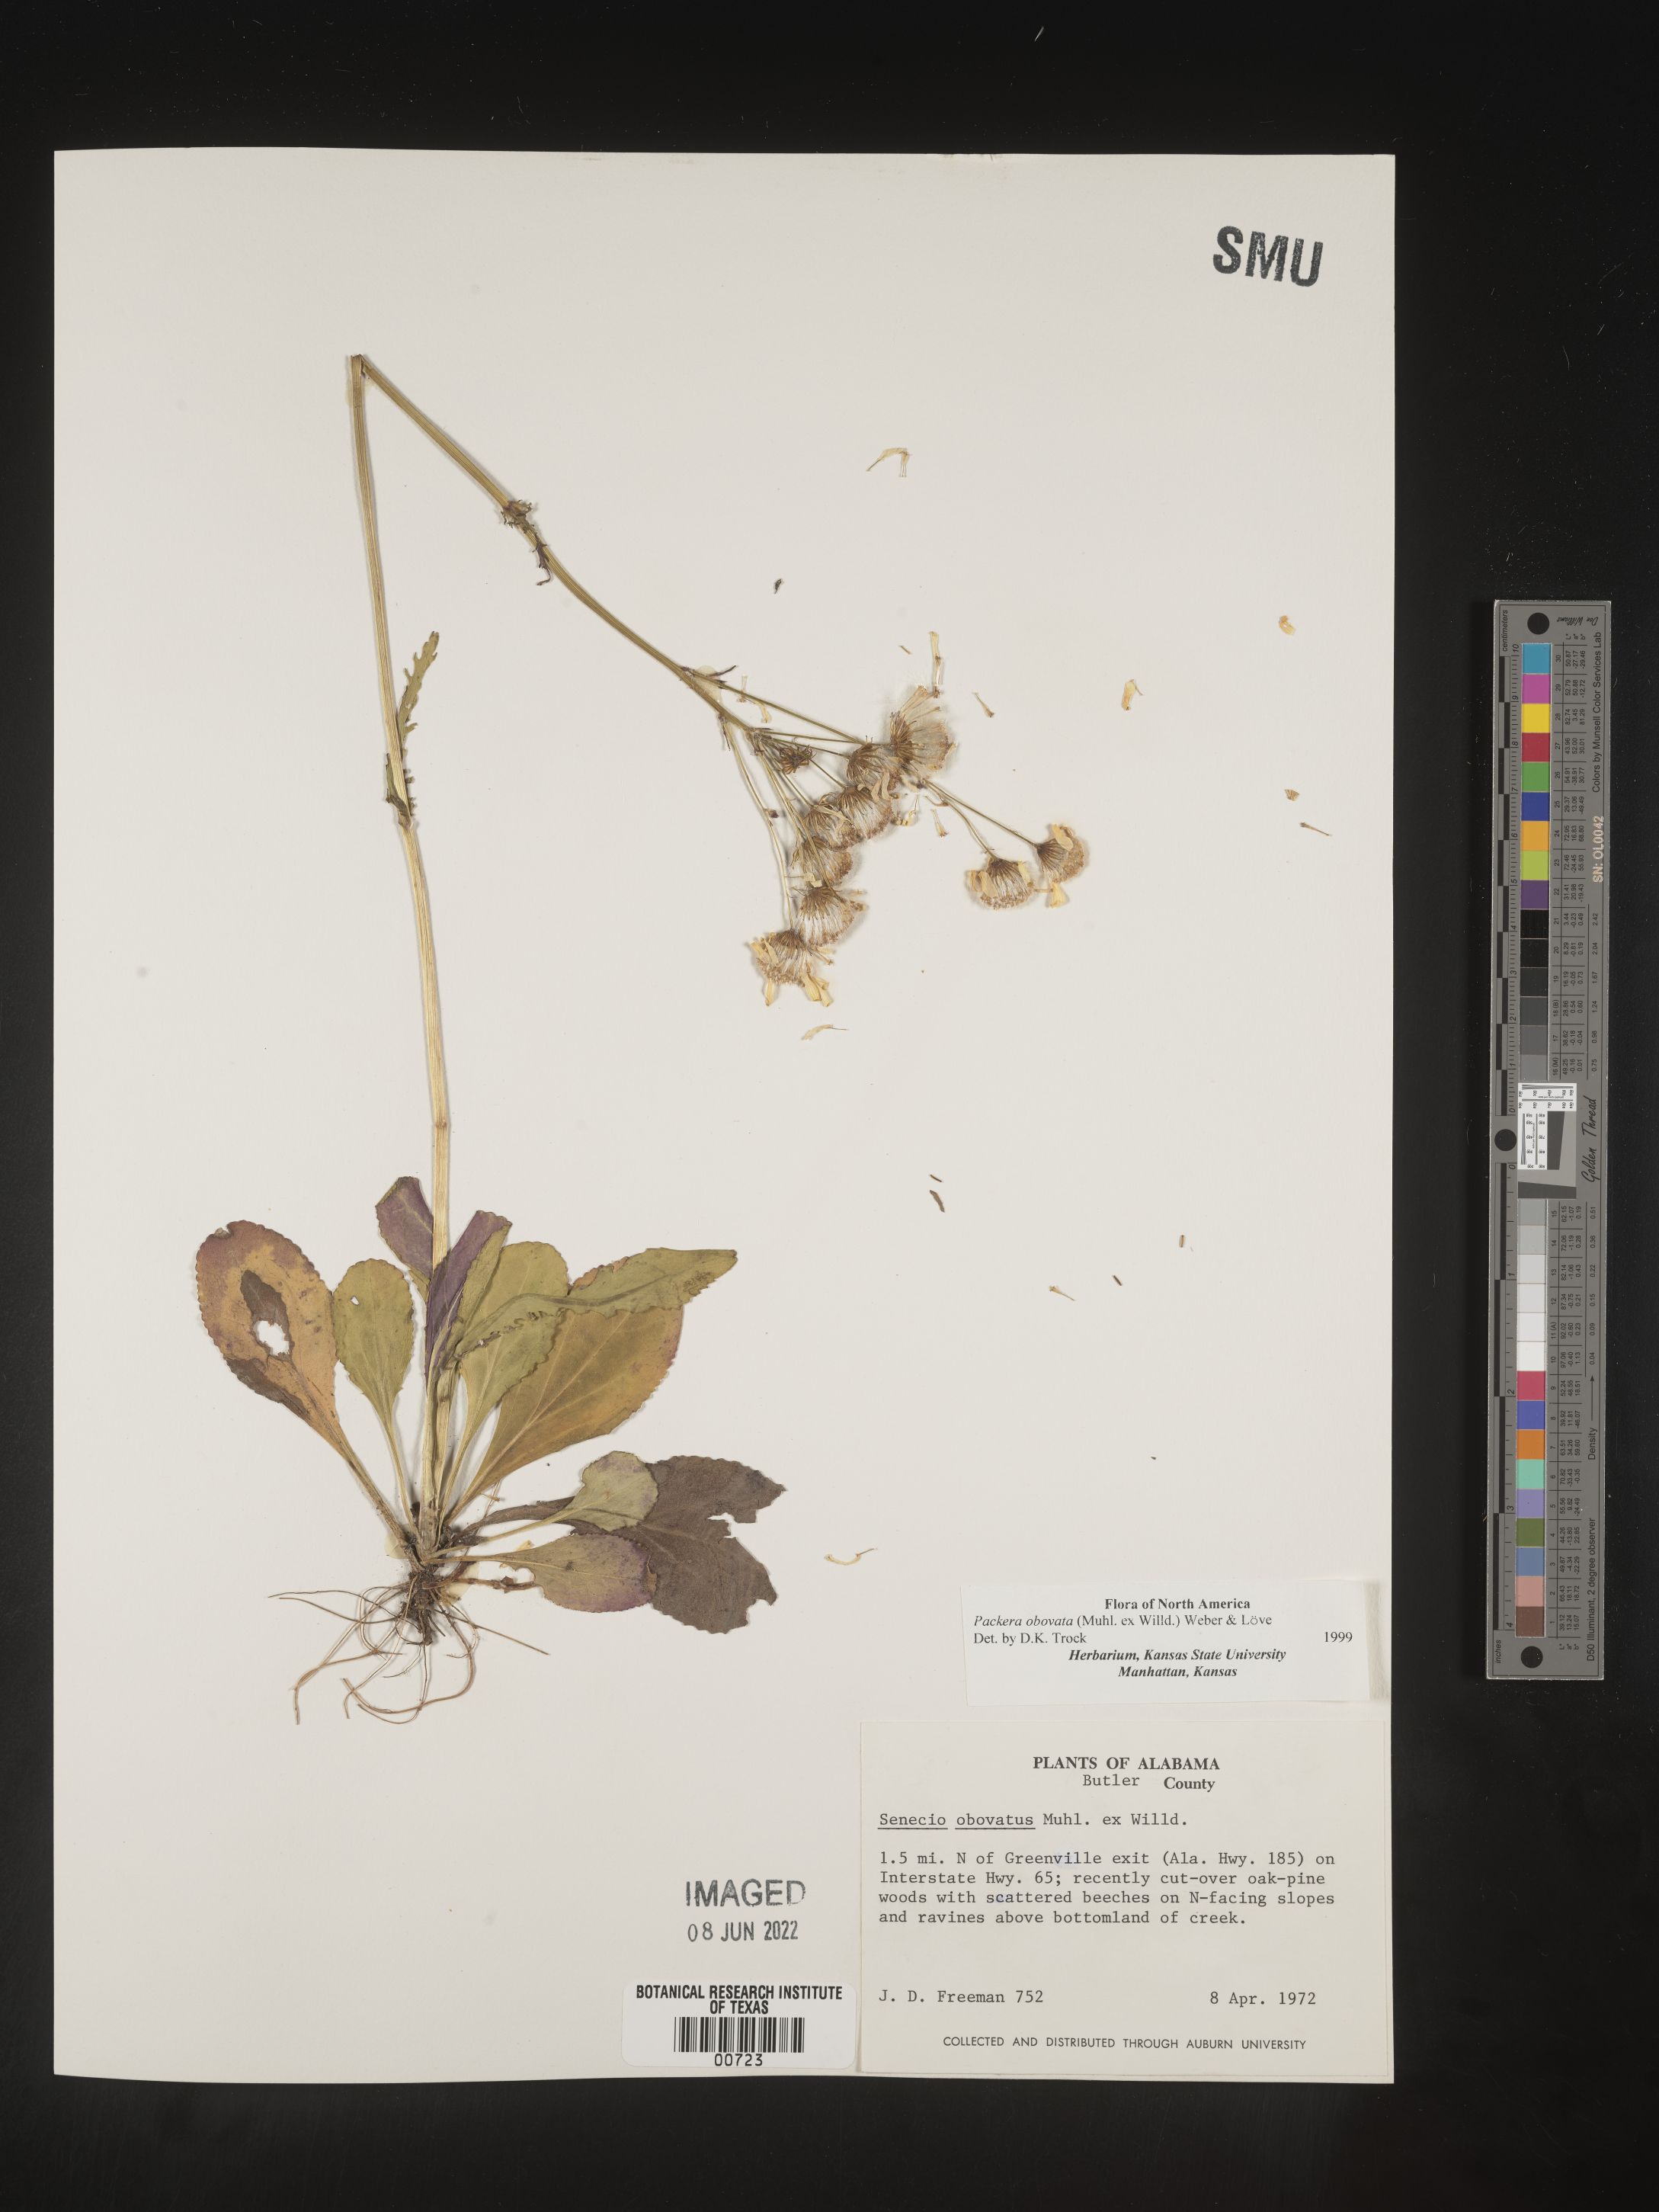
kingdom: Plantae
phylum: Tracheophyta
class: Magnoliopsida
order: Asterales
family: Asteraceae
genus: Packera
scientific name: Packera obovata
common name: Round-leaf ragwort
